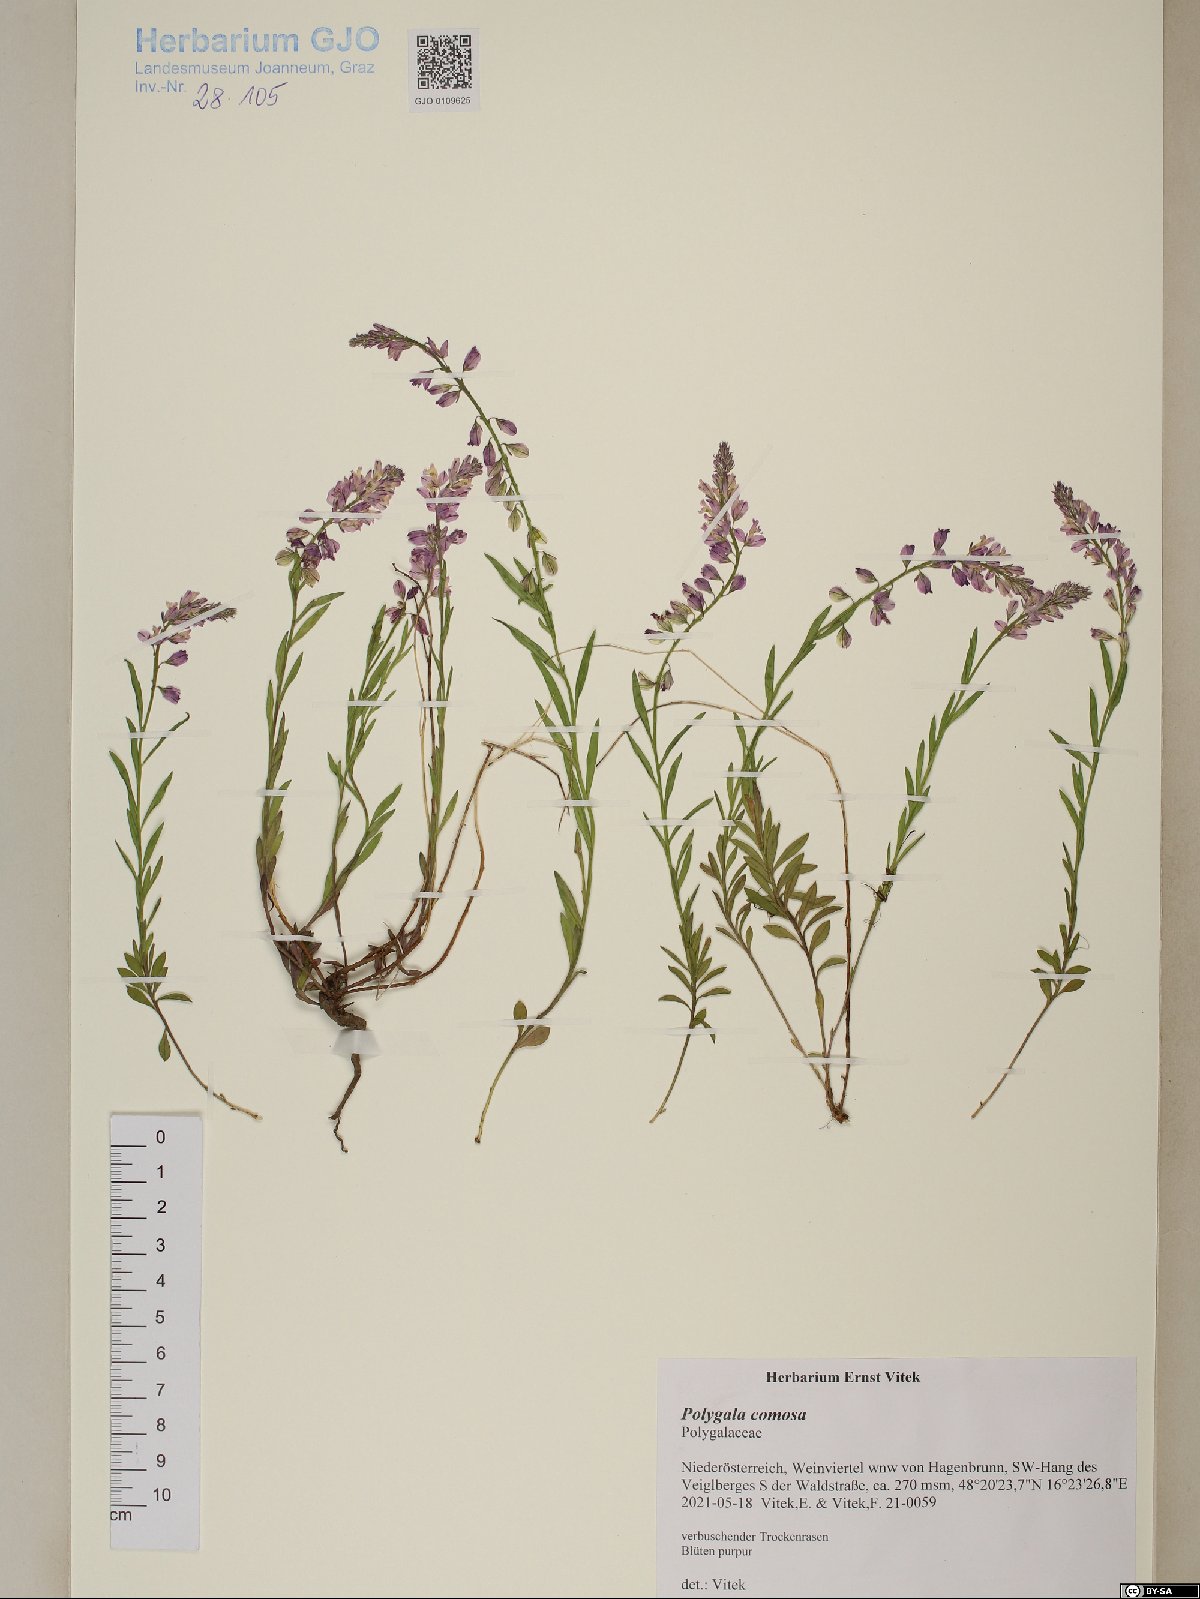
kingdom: Plantae
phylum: Tracheophyta
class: Magnoliopsida
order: Fabales
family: Polygalaceae
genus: Polygala
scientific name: Polygala comosa
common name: Tufted milkwort
